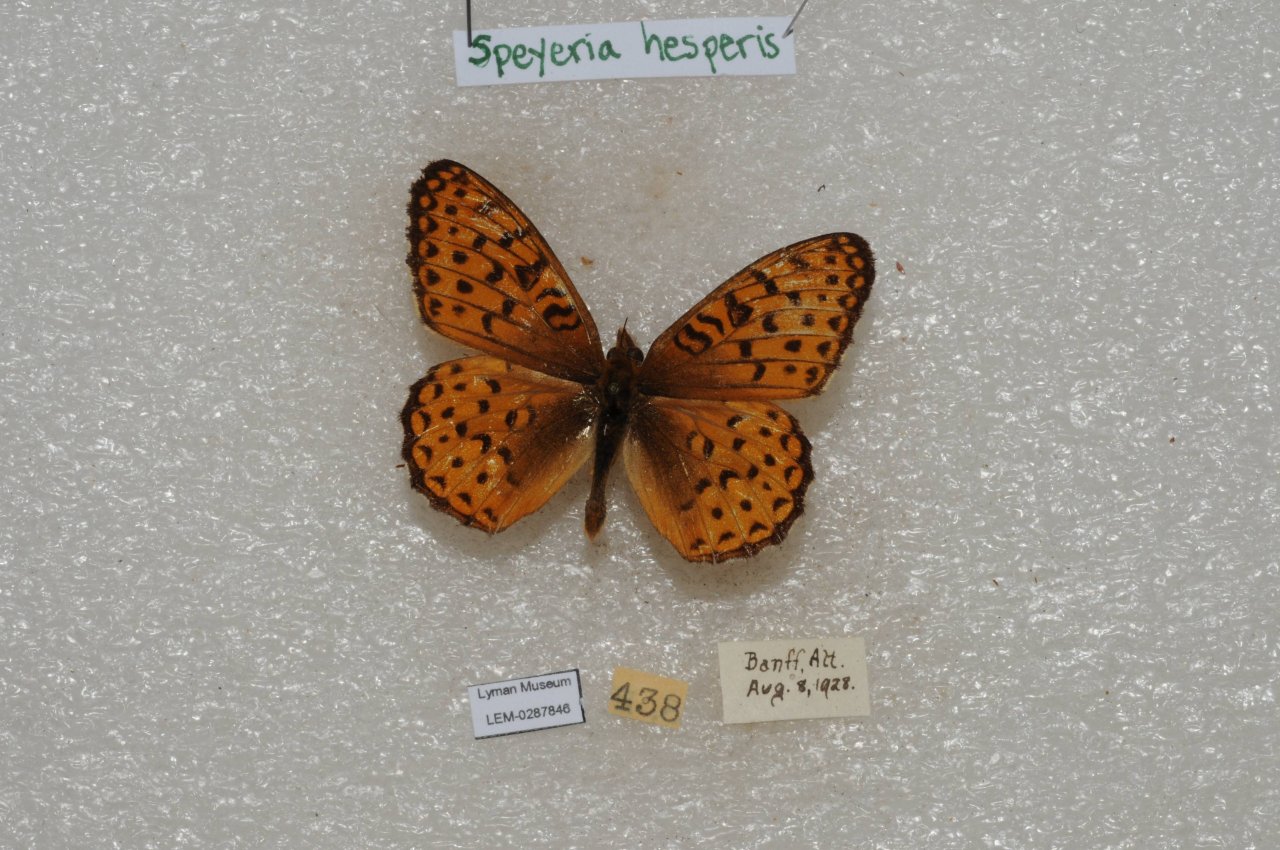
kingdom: Animalia
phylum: Arthropoda
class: Insecta
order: Lepidoptera
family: Nymphalidae
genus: Speyeria
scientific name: Speyeria atlantis
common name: Northwestern Fritillary
